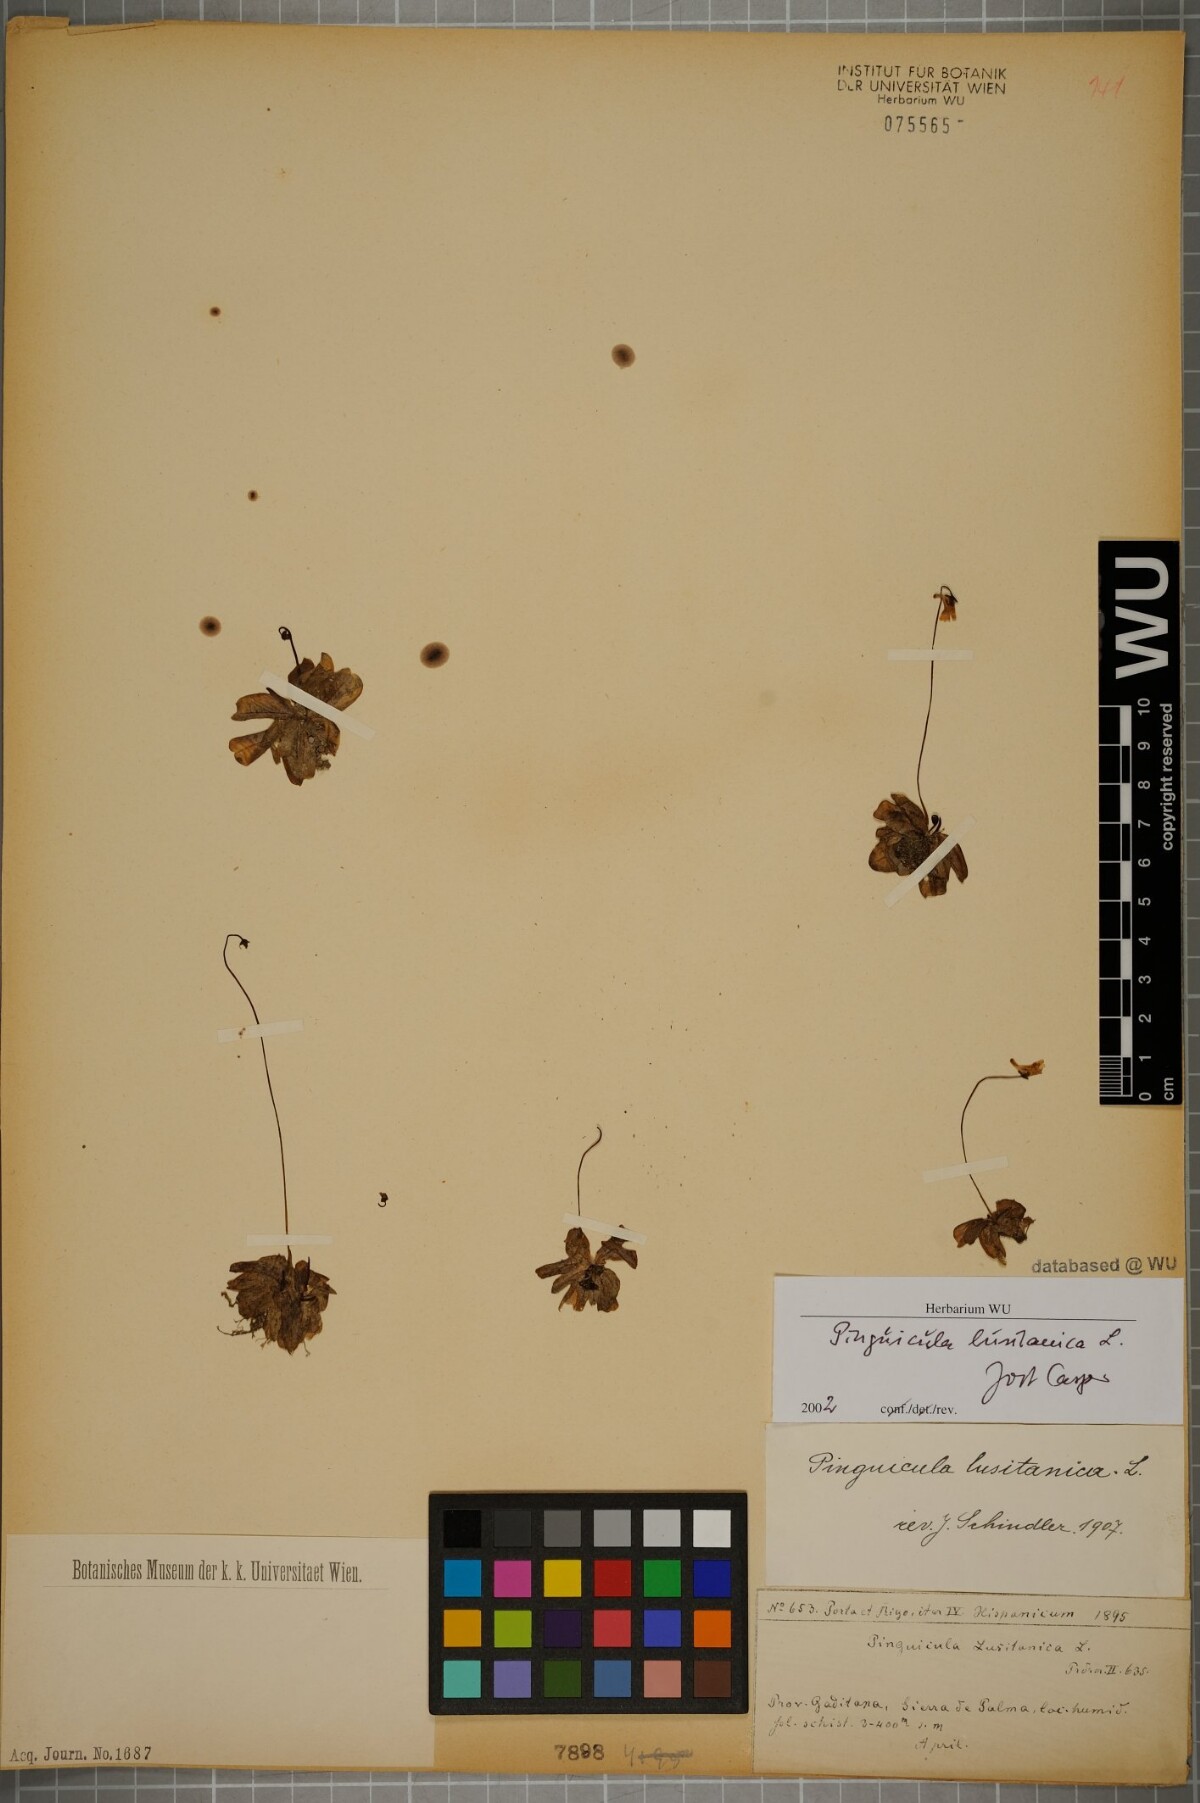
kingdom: Plantae
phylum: Tracheophyta
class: Magnoliopsida
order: Lamiales
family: Lentibulariaceae
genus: Pinguicula
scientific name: Pinguicula lusitanica
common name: Pale butterwort
